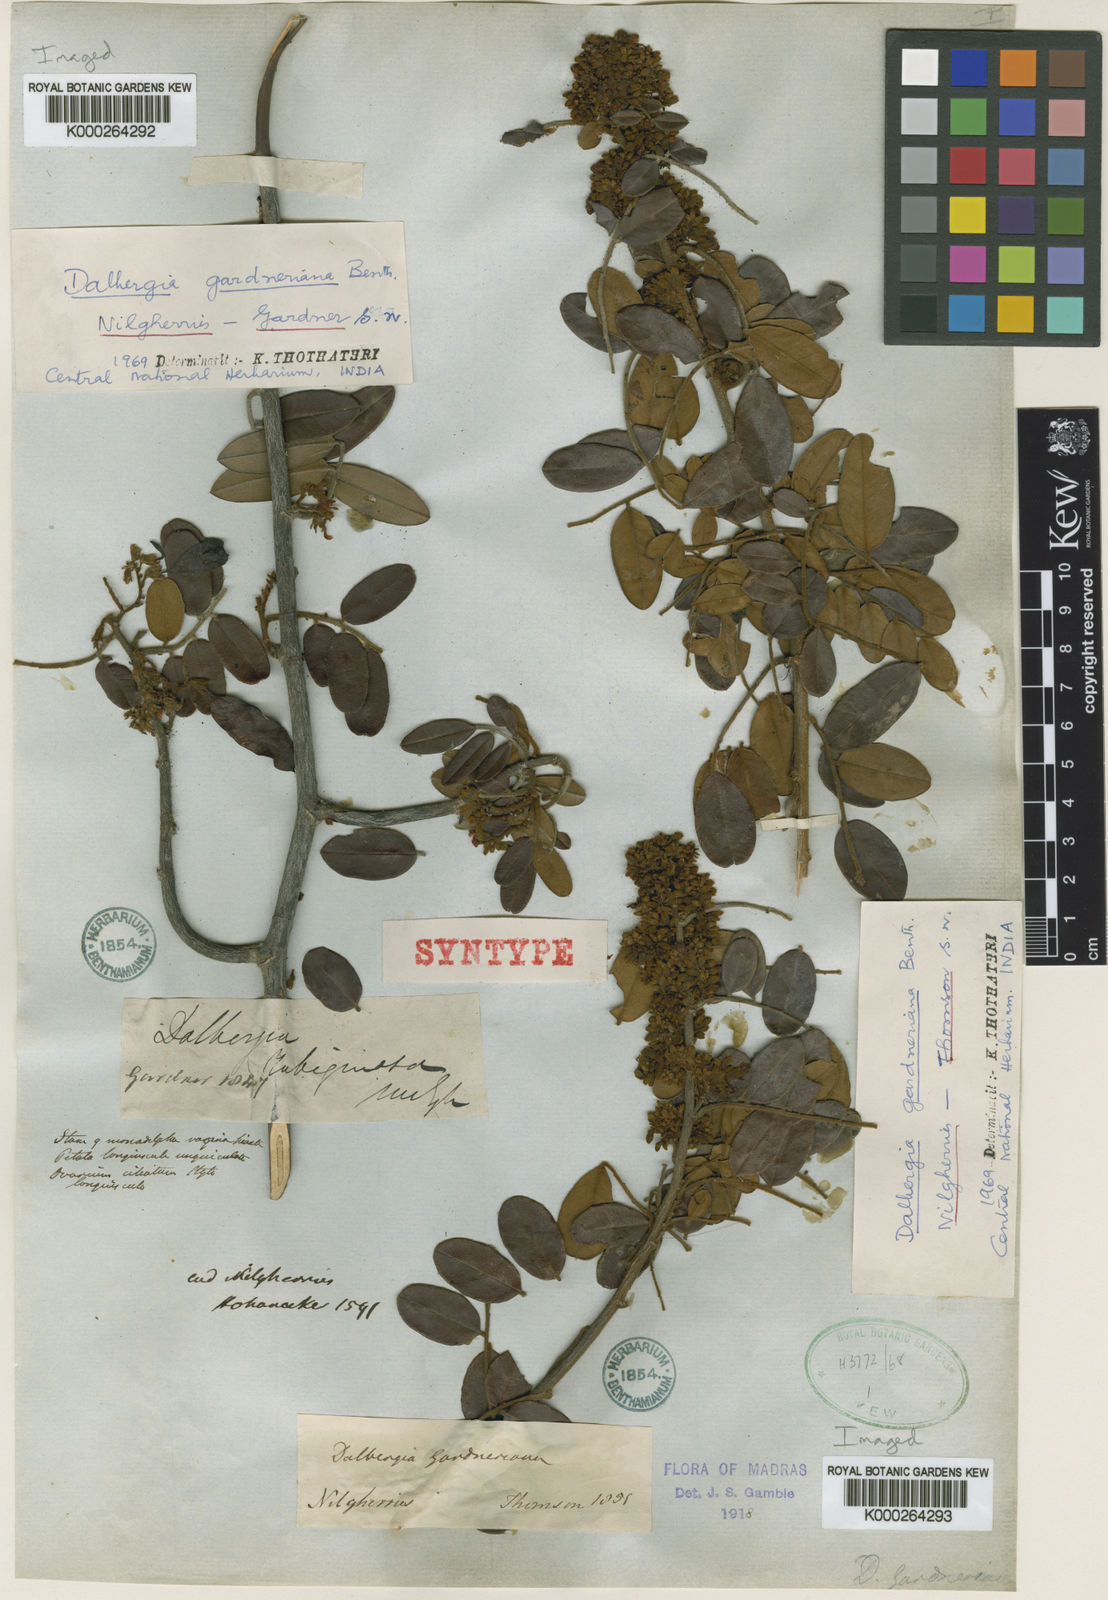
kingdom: Plantae
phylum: Tracheophyta
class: Magnoliopsida
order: Fabales
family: Fabaceae
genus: Dalbergia
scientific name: Dalbergia gardneriana
